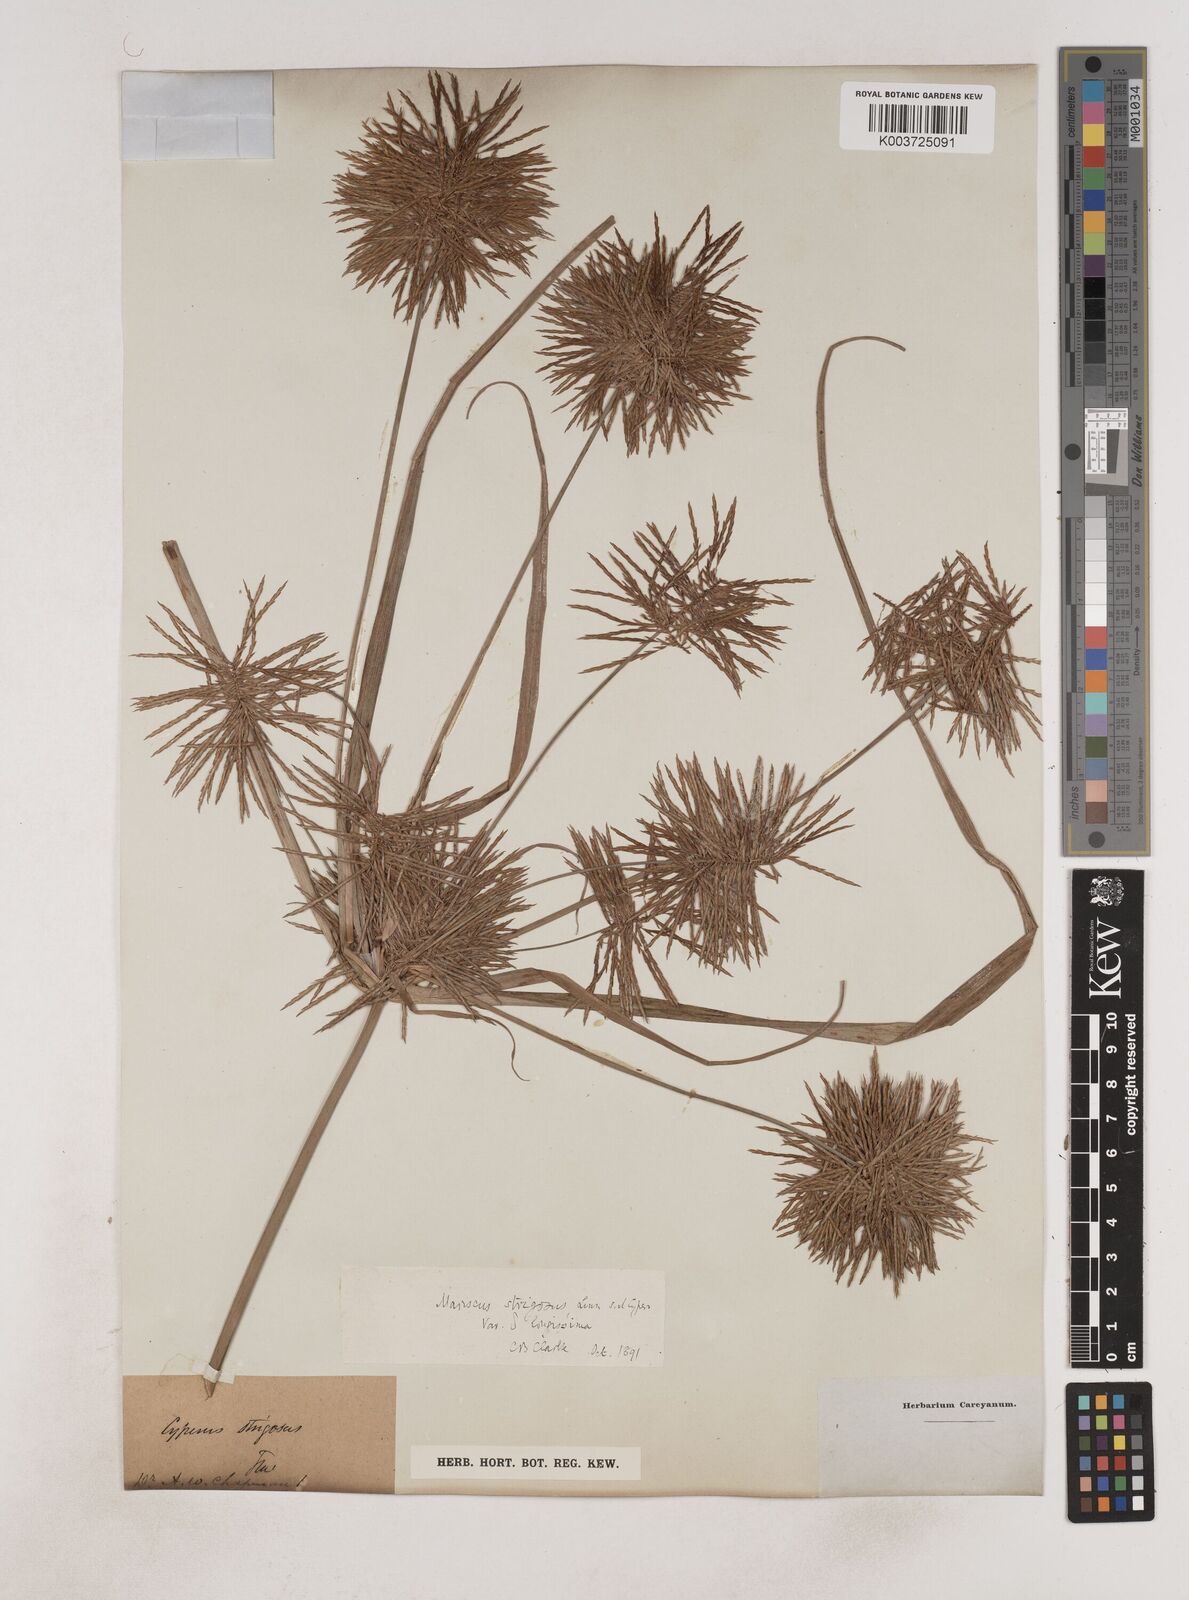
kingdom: Plantae
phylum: Tracheophyta
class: Liliopsida
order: Poales
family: Cyperaceae
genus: Cyperus
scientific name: Cyperus strigosus
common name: False nutsedge
